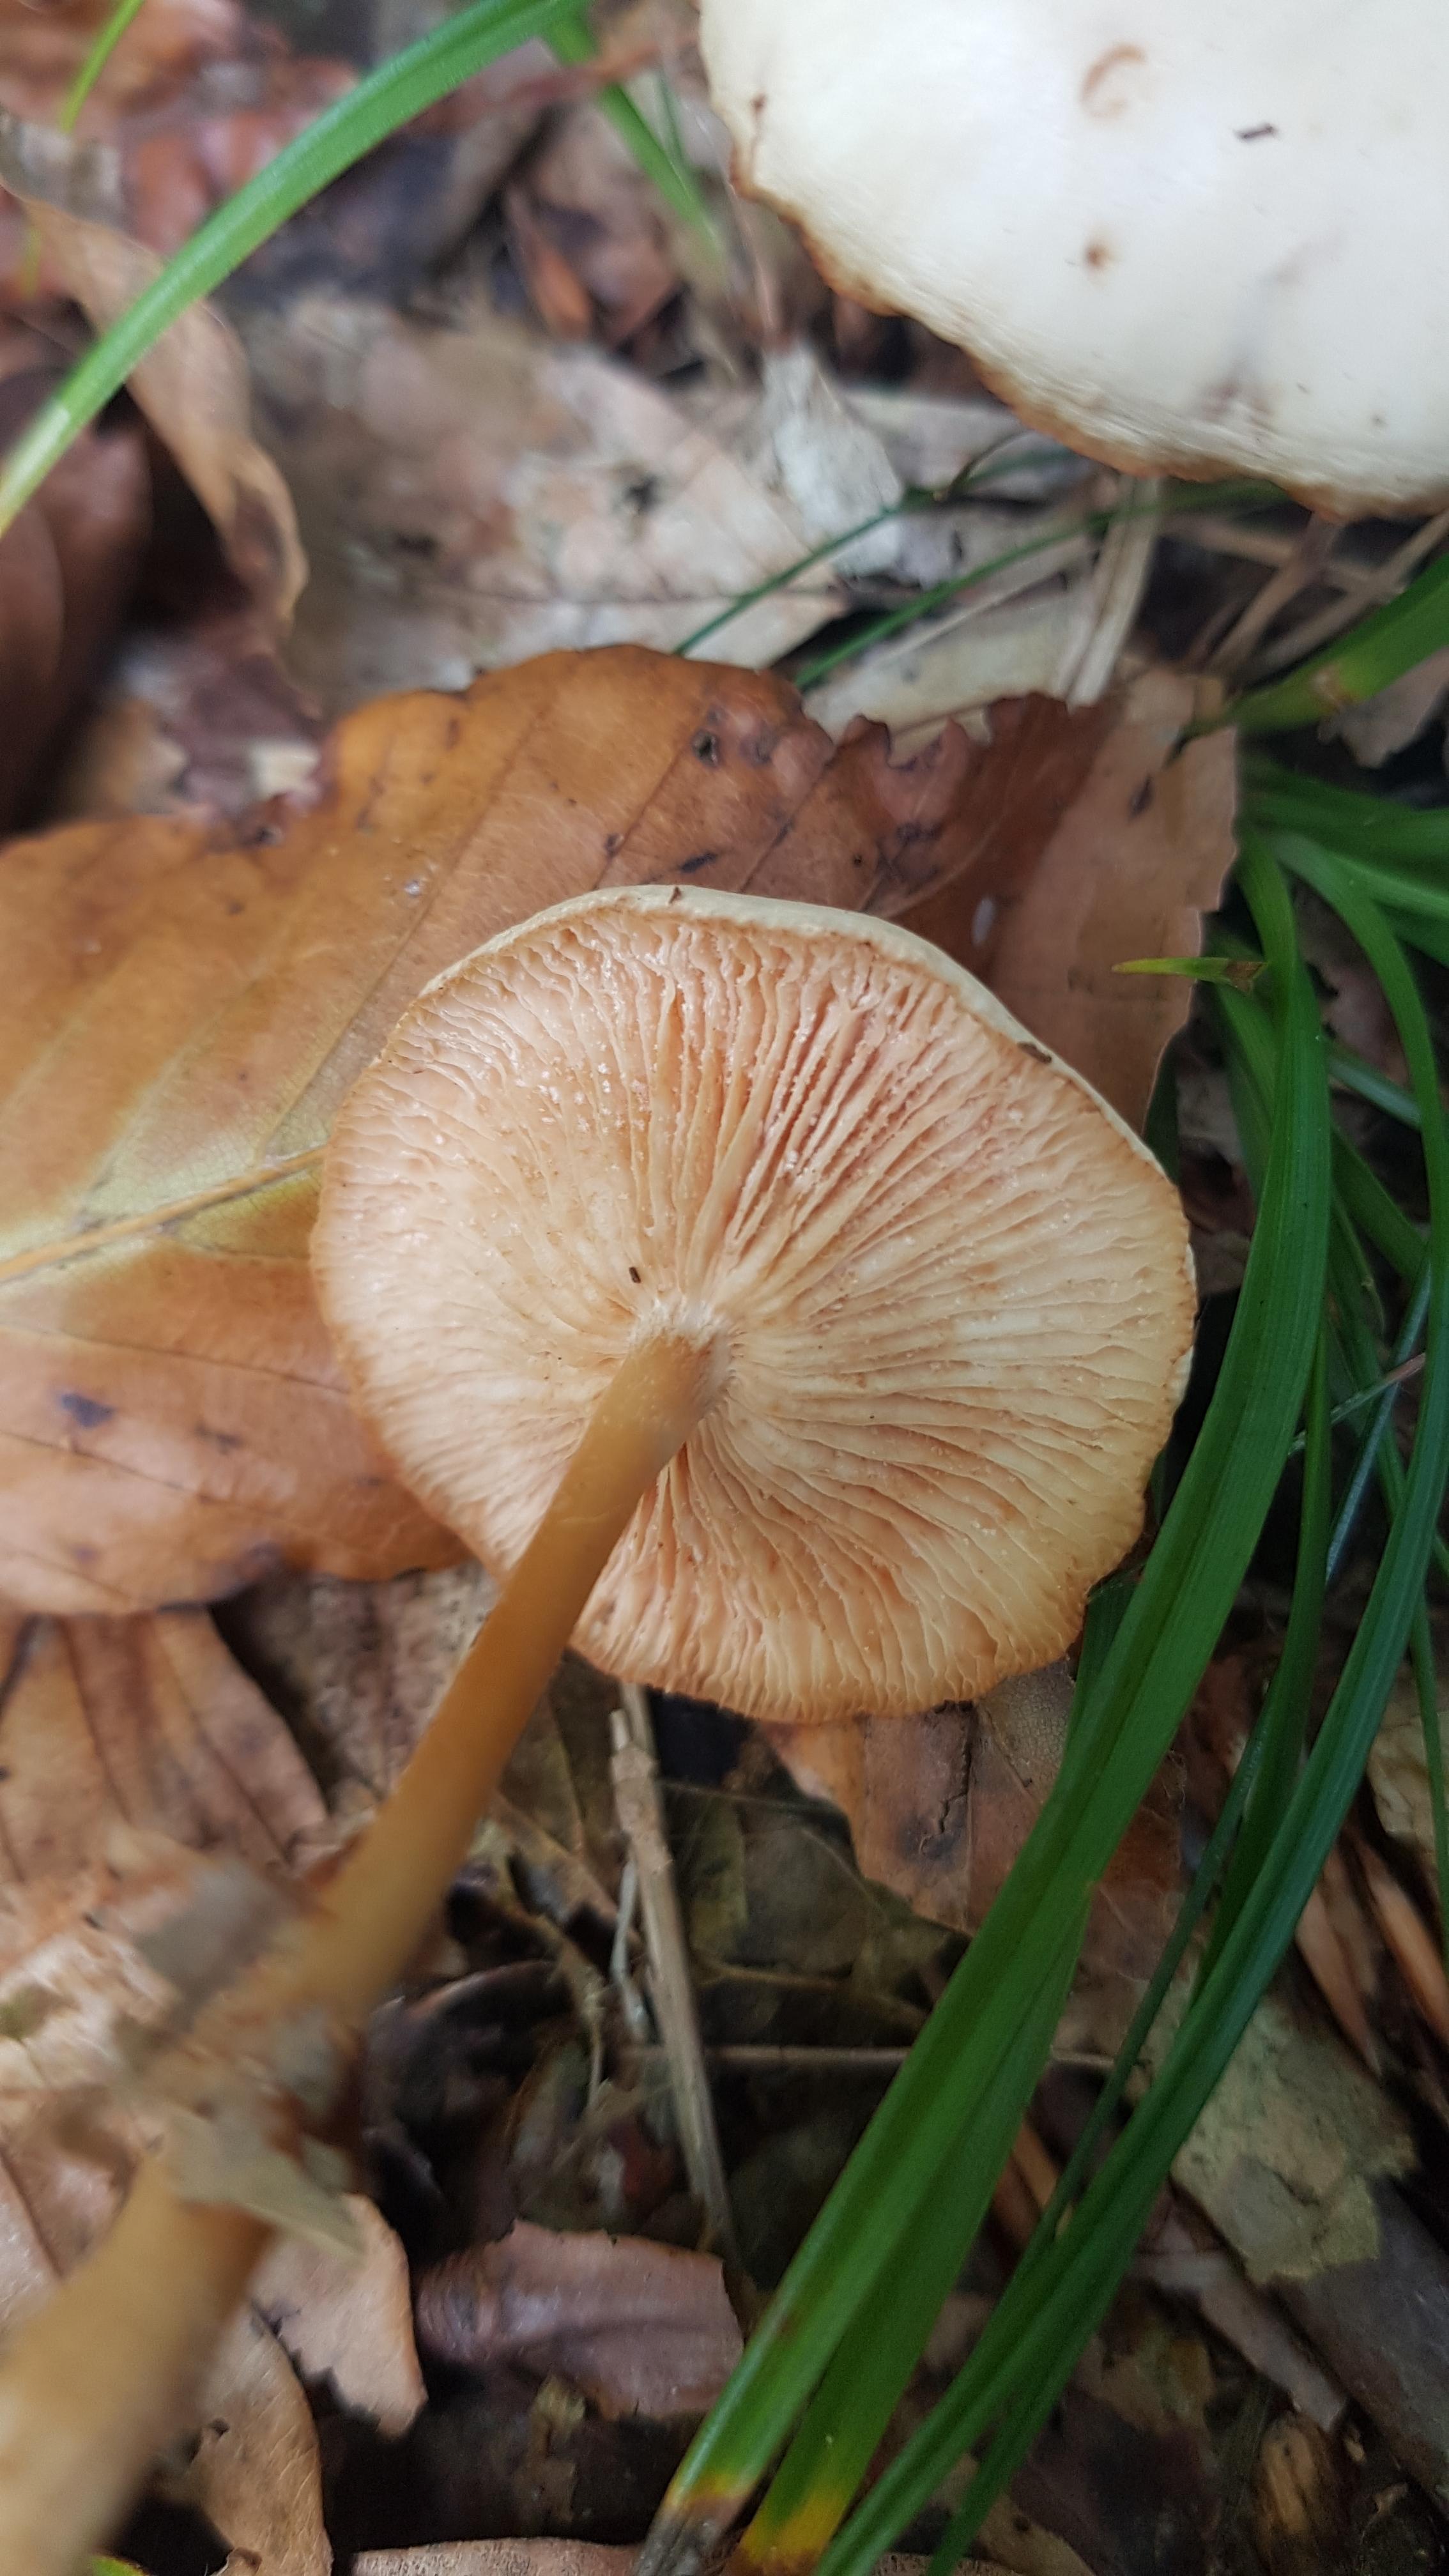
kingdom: Fungi
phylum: Basidiomycota
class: Agaricomycetes
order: Agaricales
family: Omphalotaceae
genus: Gymnopus
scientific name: Gymnopus dryophilus
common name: løv-fladhat
